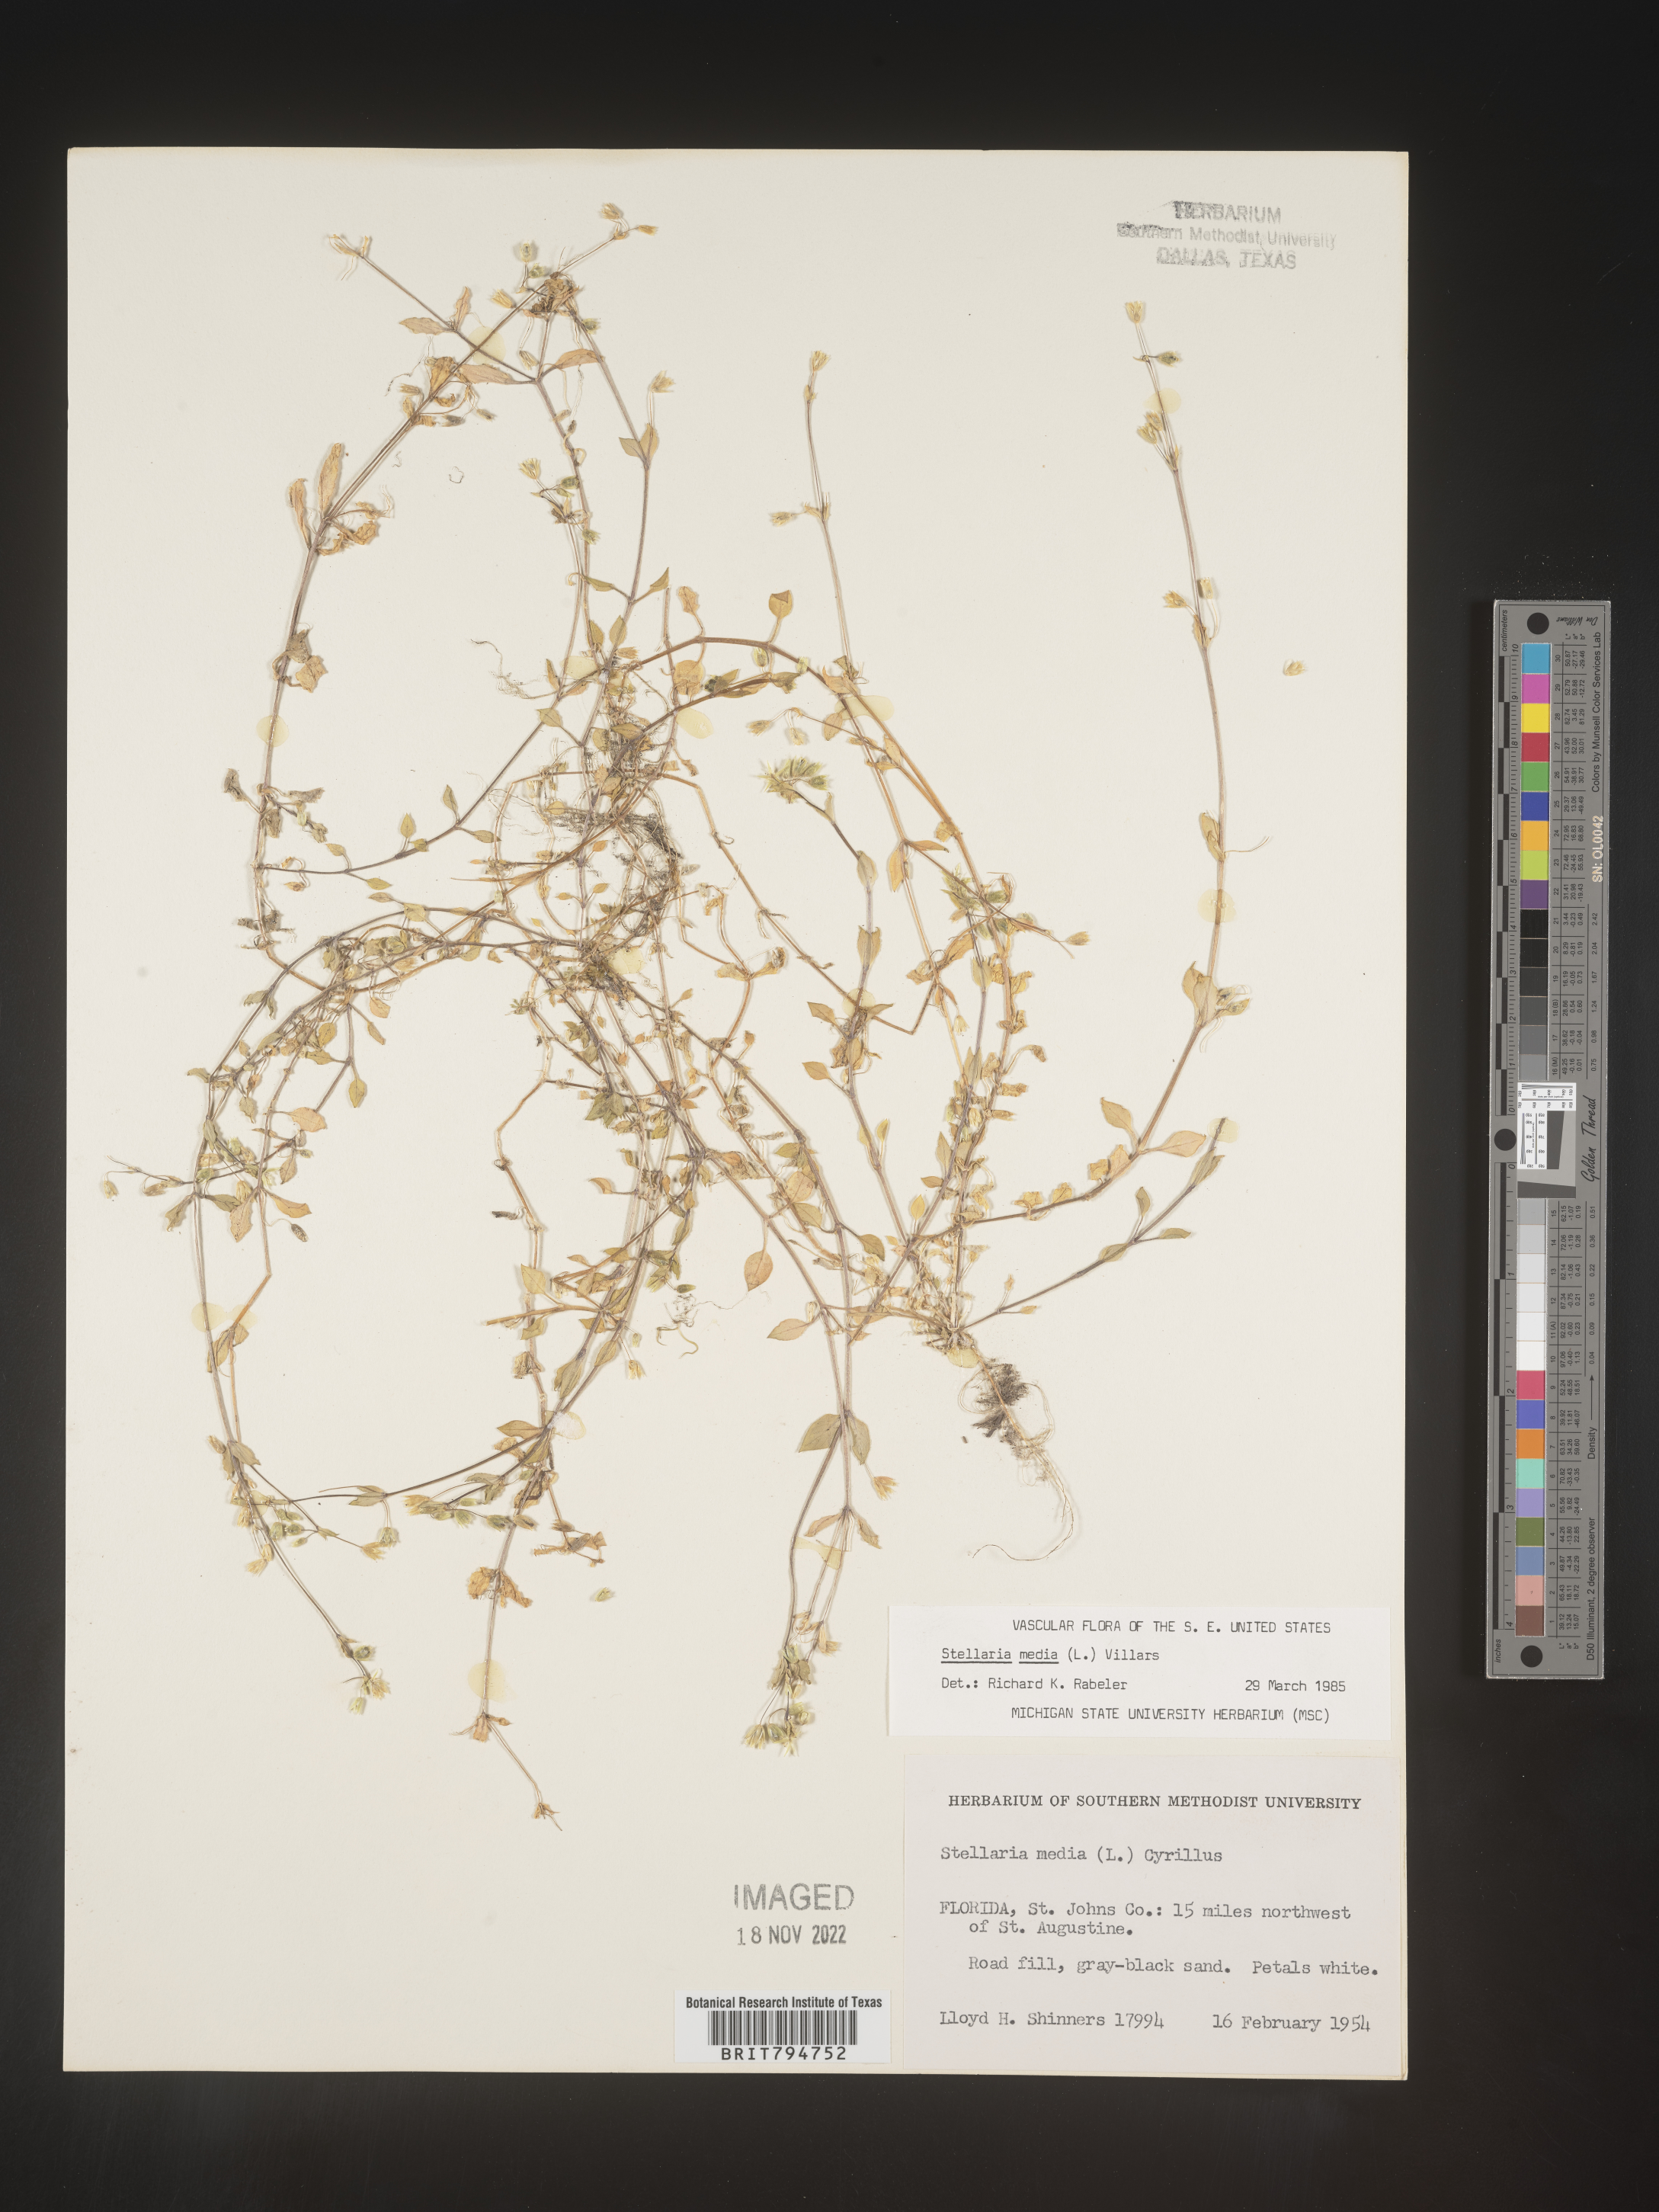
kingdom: Plantae
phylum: Tracheophyta
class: Magnoliopsida
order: Caryophyllales
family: Caryophyllaceae
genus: Stellaria
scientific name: Stellaria media
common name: Common chickweed
